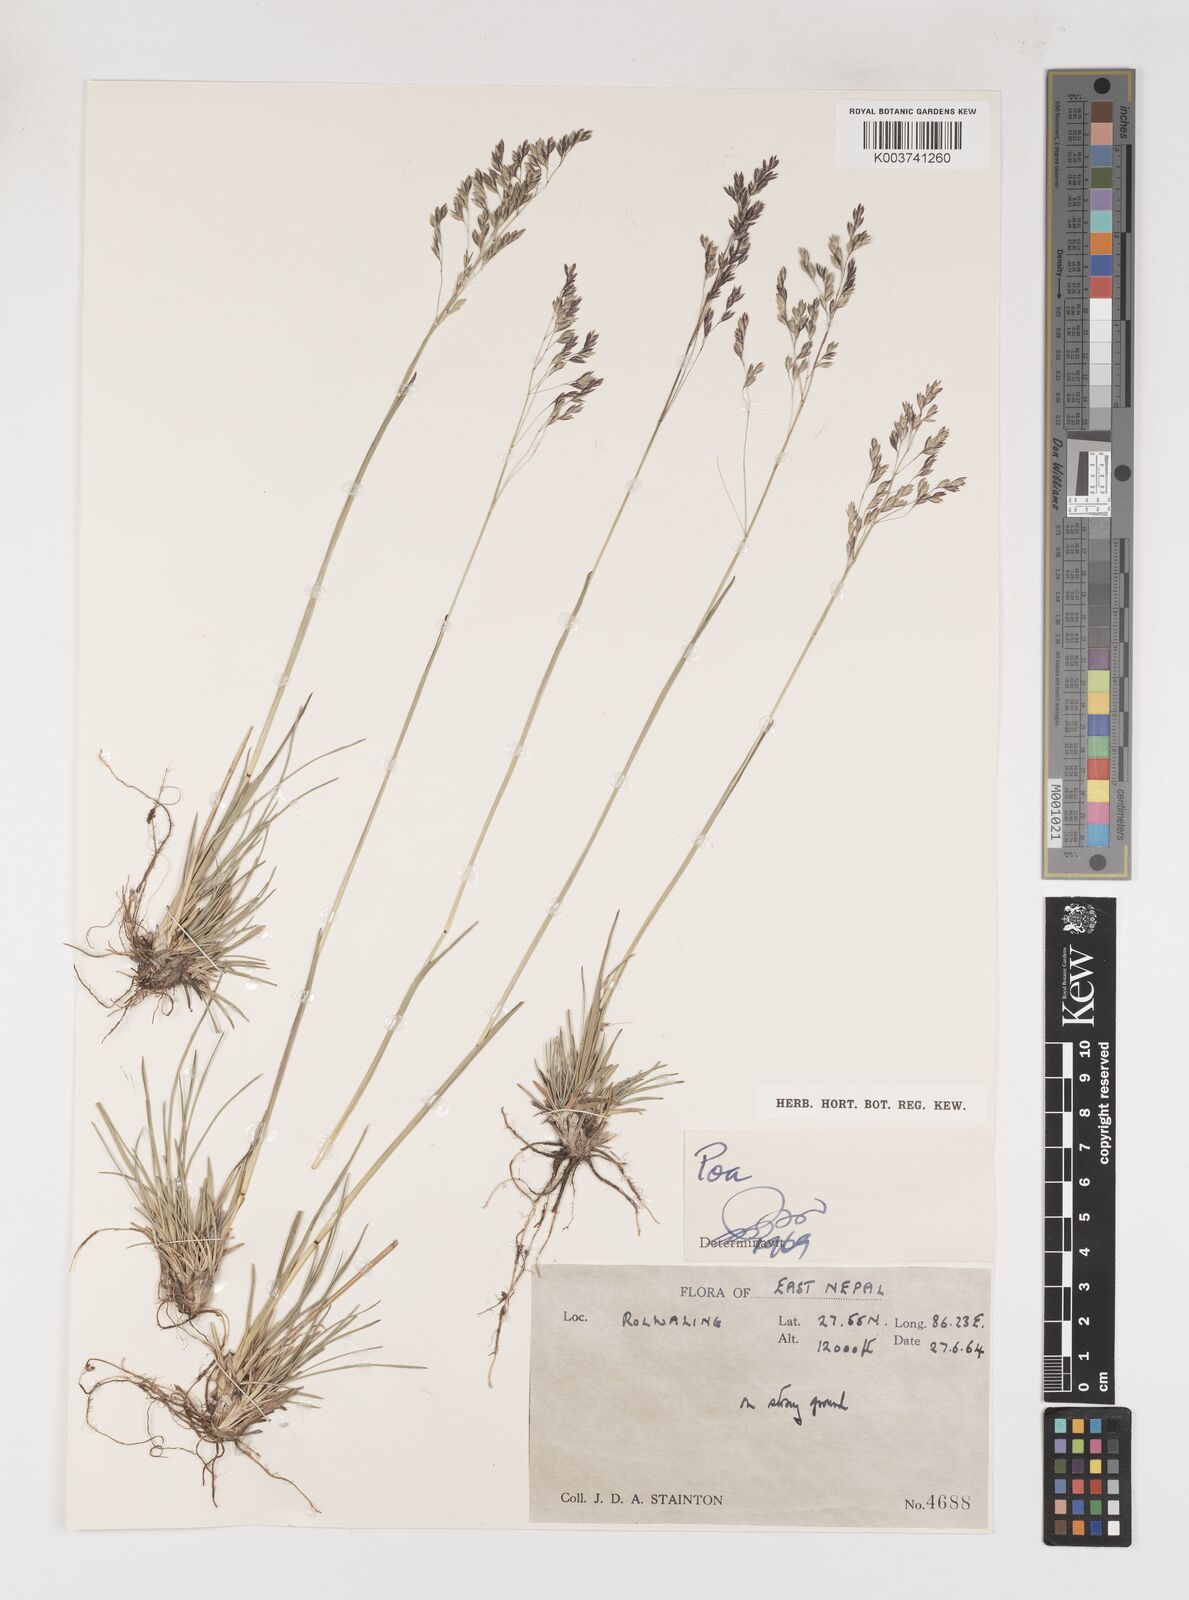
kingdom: Plantae
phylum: Tracheophyta
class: Liliopsida
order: Poales
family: Poaceae
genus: Poa
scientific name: Poa
